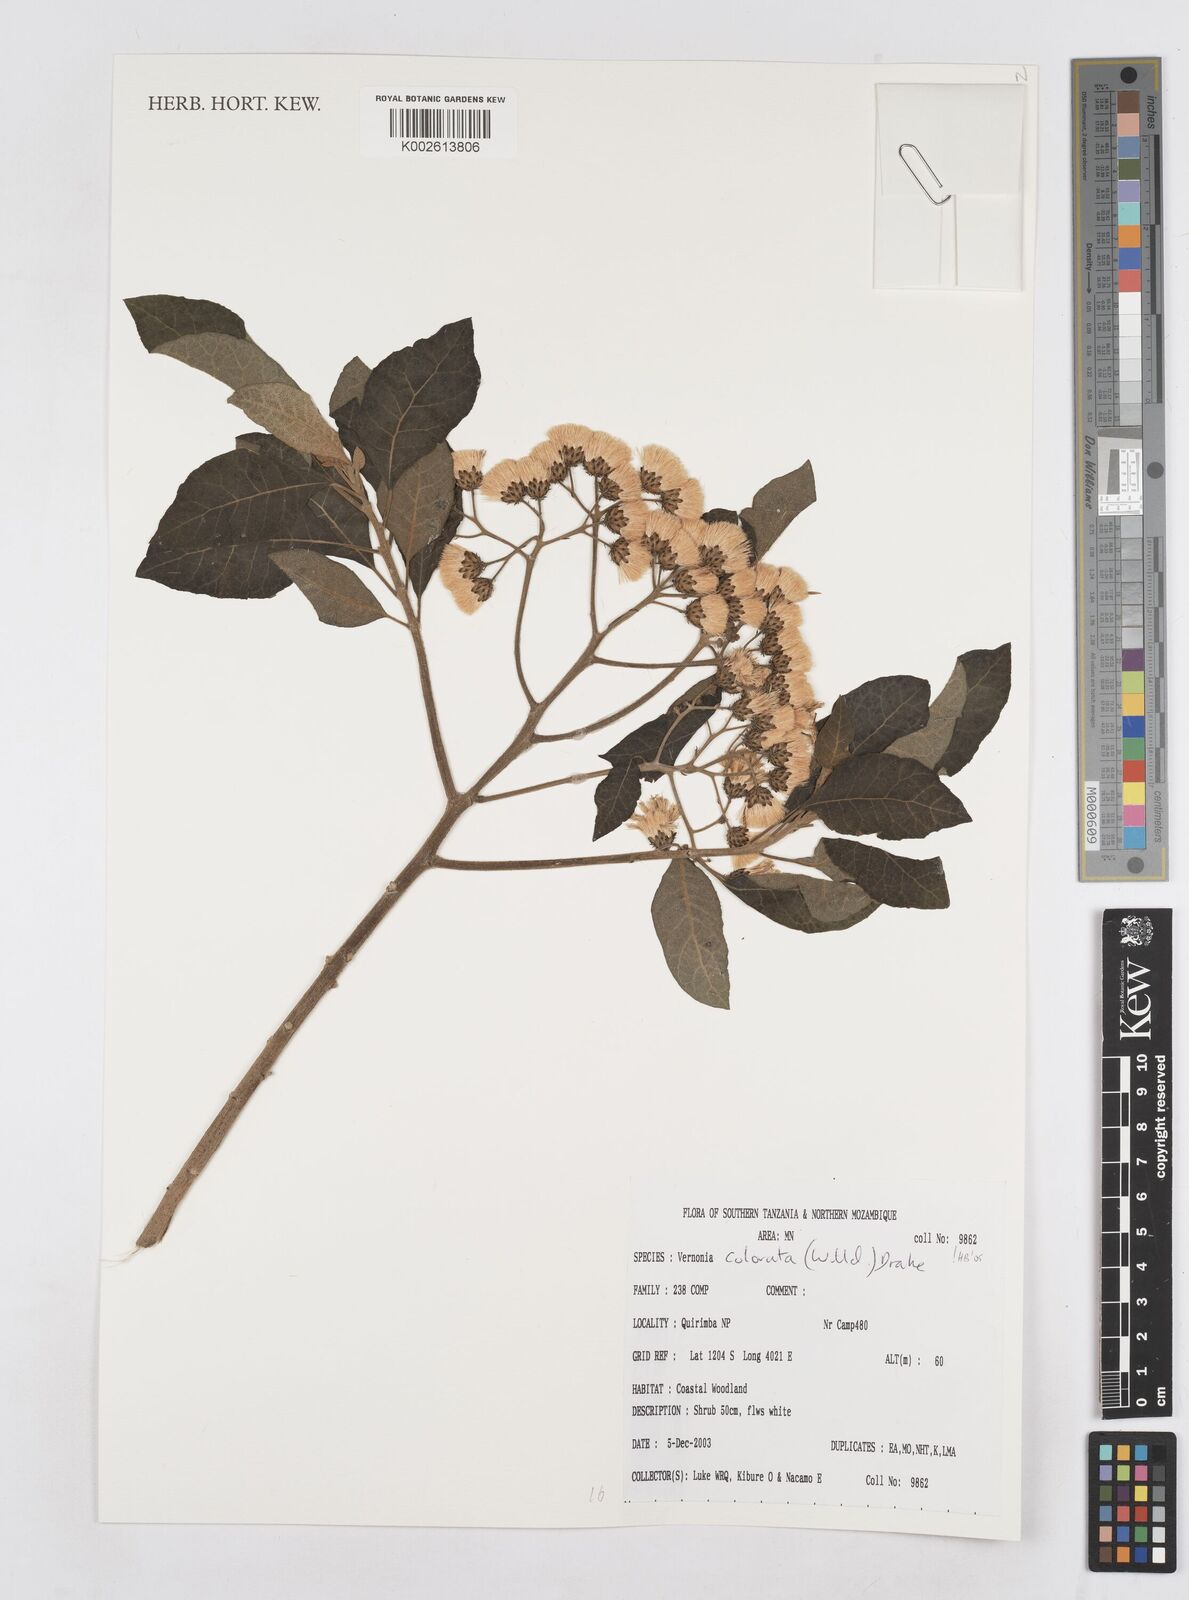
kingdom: Plantae
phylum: Tracheophyta
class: Magnoliopsida
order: Asterales
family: Asteraceae
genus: Vernonia
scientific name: Vernonia colorata
